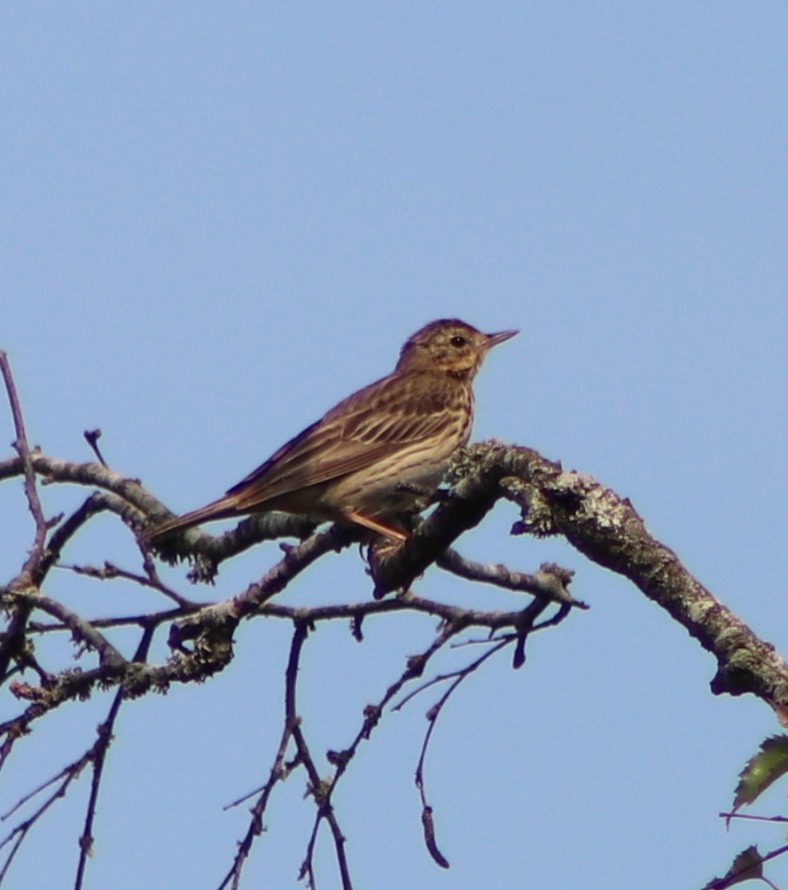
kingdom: Animalia
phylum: Chordata
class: Aves
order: Passeriformes
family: Motacillidae
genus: Anthus
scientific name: Anthus trivialis
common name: Skovpiber
